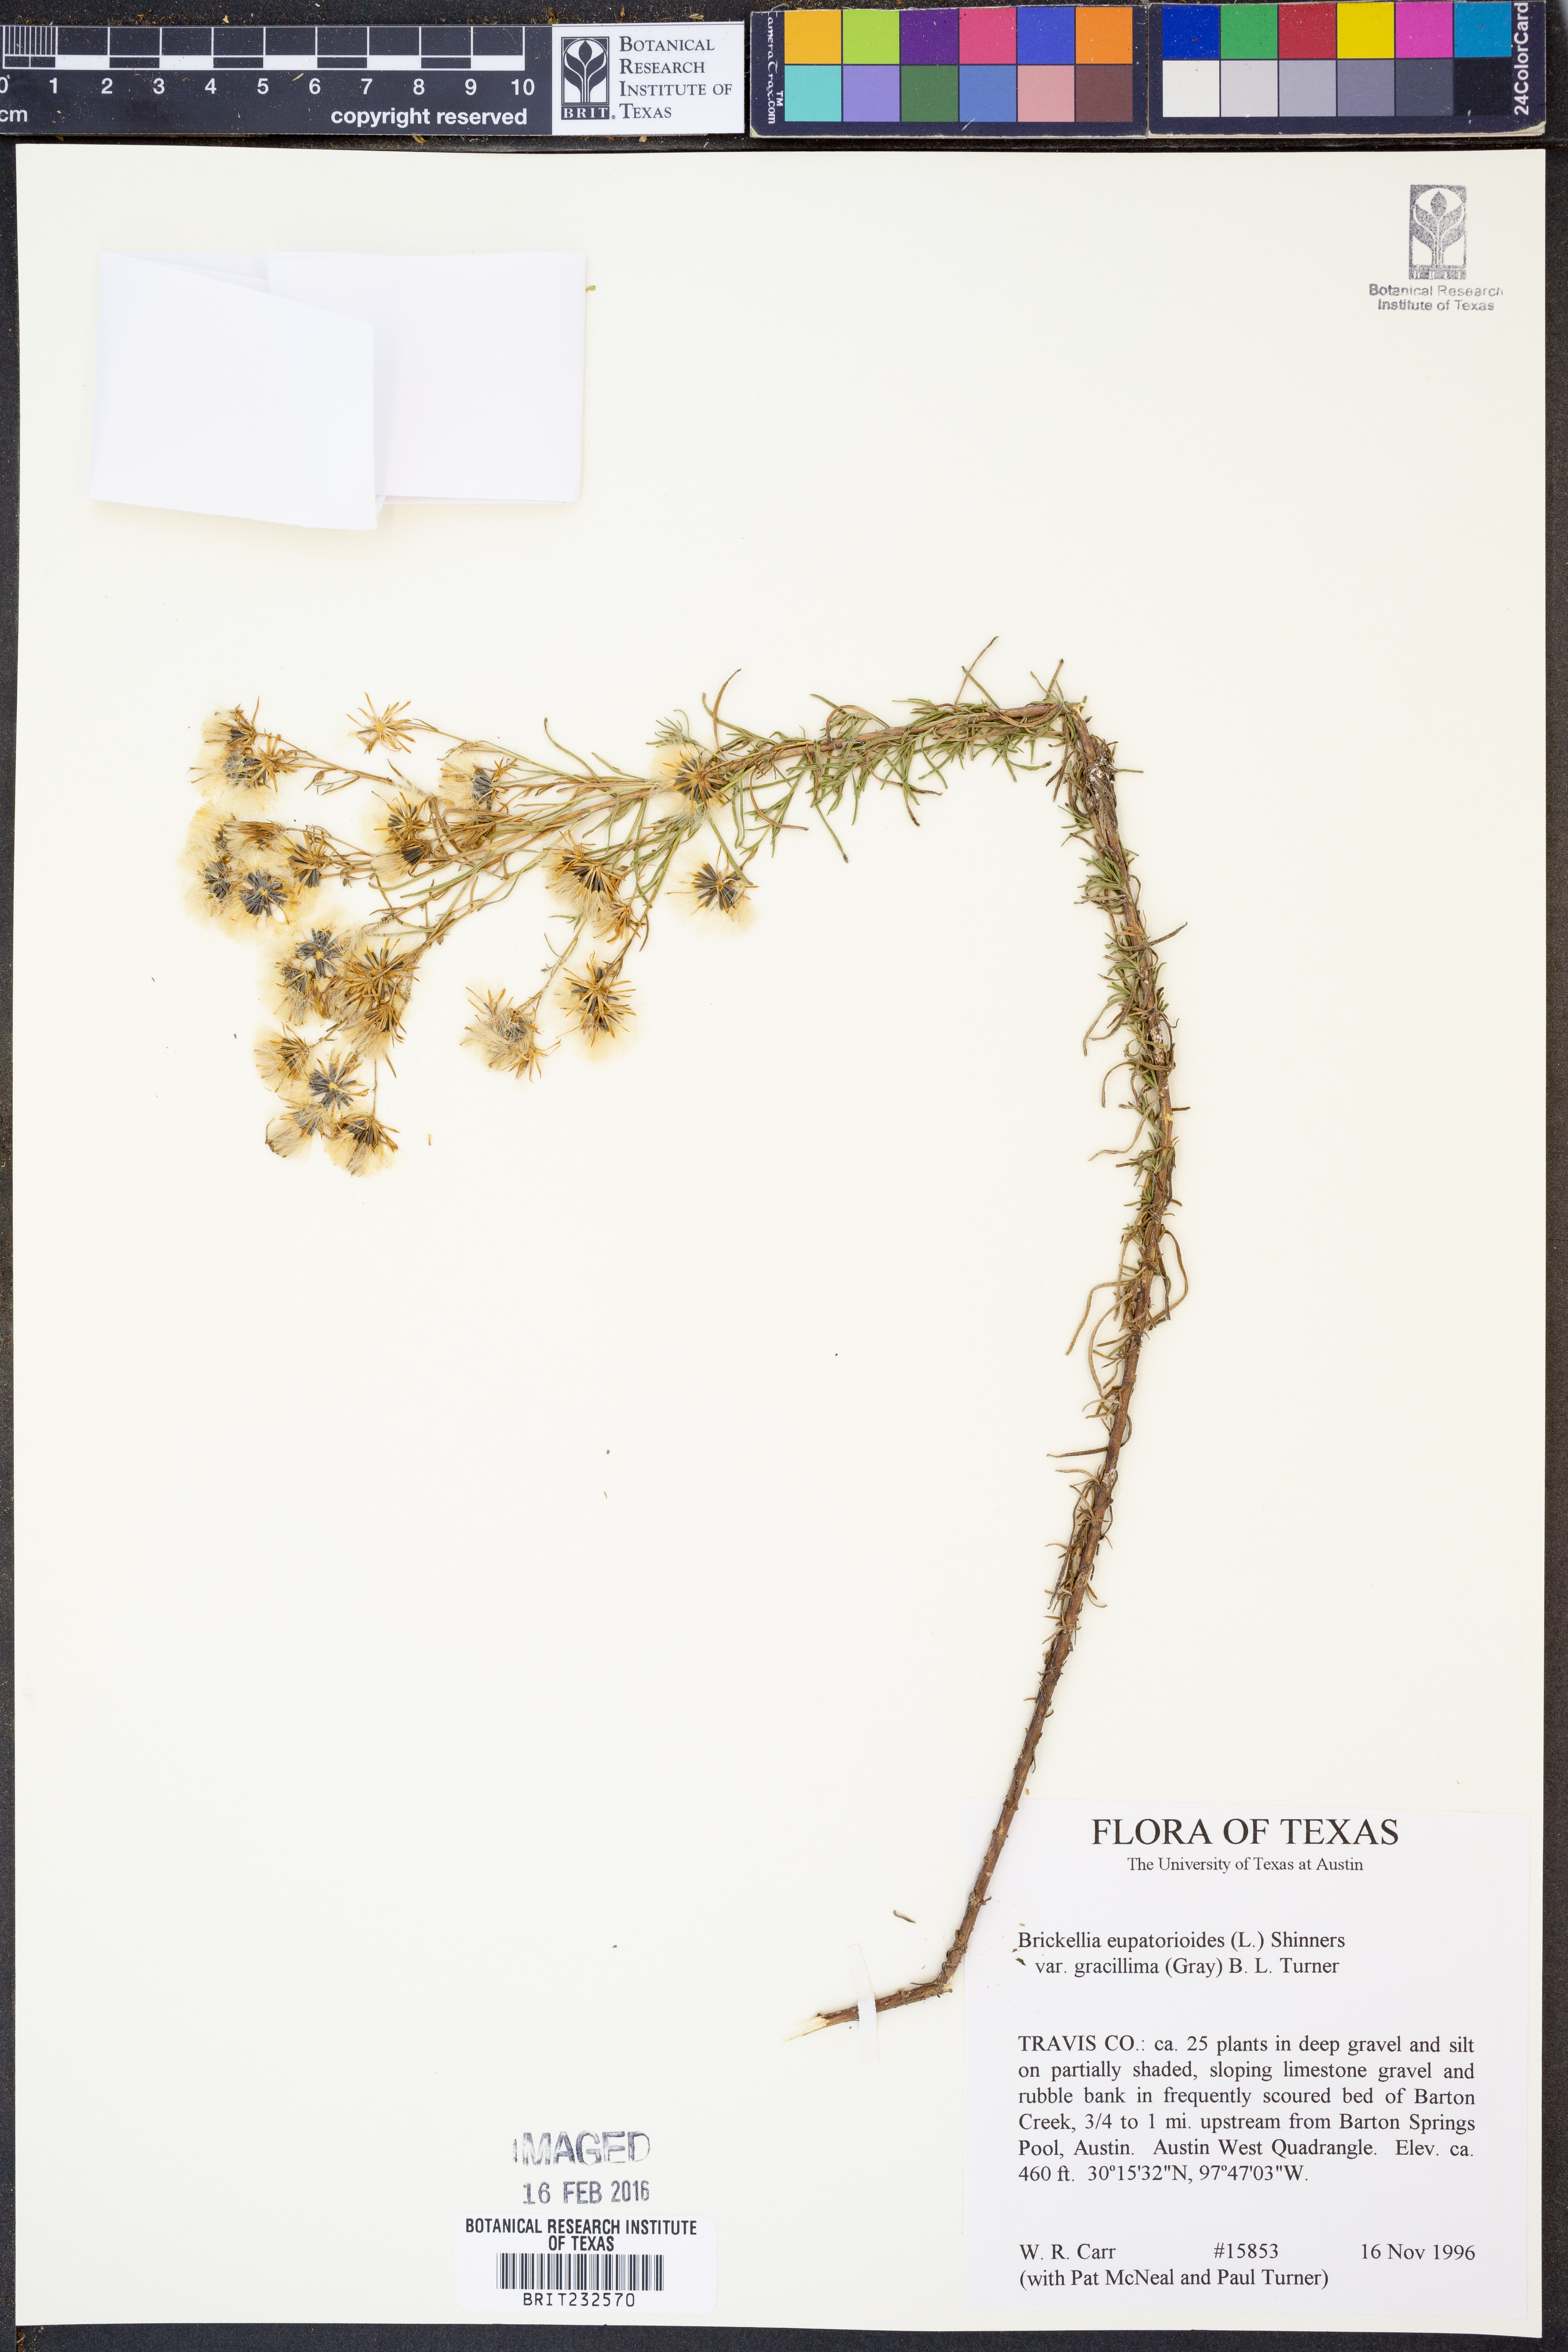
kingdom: Plantae
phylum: Tracheophyta
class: Magnoliopsida
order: Asterales
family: Asteraceae
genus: Brickellia
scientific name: Brickellia leptophylla
